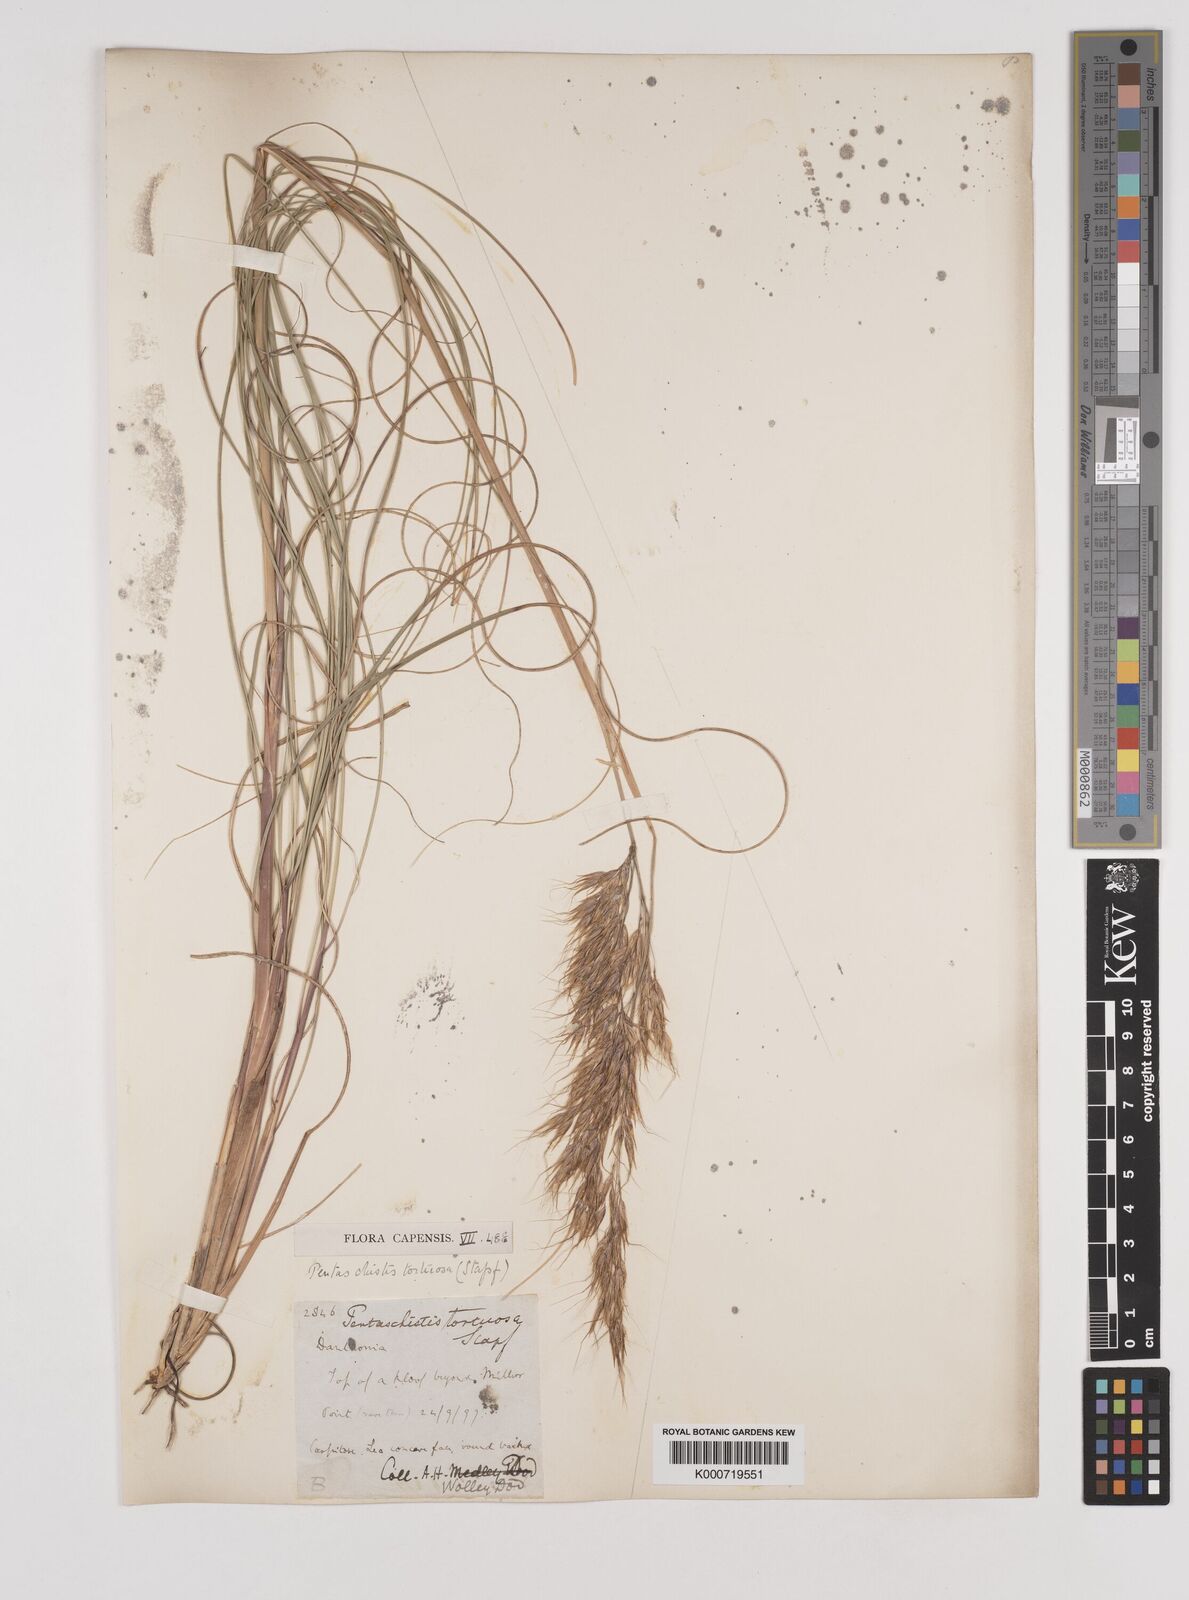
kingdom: Plantae
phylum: Tracheophyta
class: Liliopsida
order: Poales
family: Poaceae
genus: Pentameris
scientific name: Pentameris tortuosa
